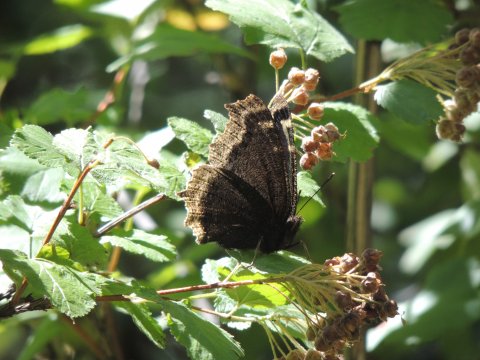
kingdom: Animalia
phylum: Arthropoda
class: Insecta
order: Lepidoptera
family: Nymphalidae
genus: Nymphalis
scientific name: Nymphalis antiopa
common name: Mourning Cloak
